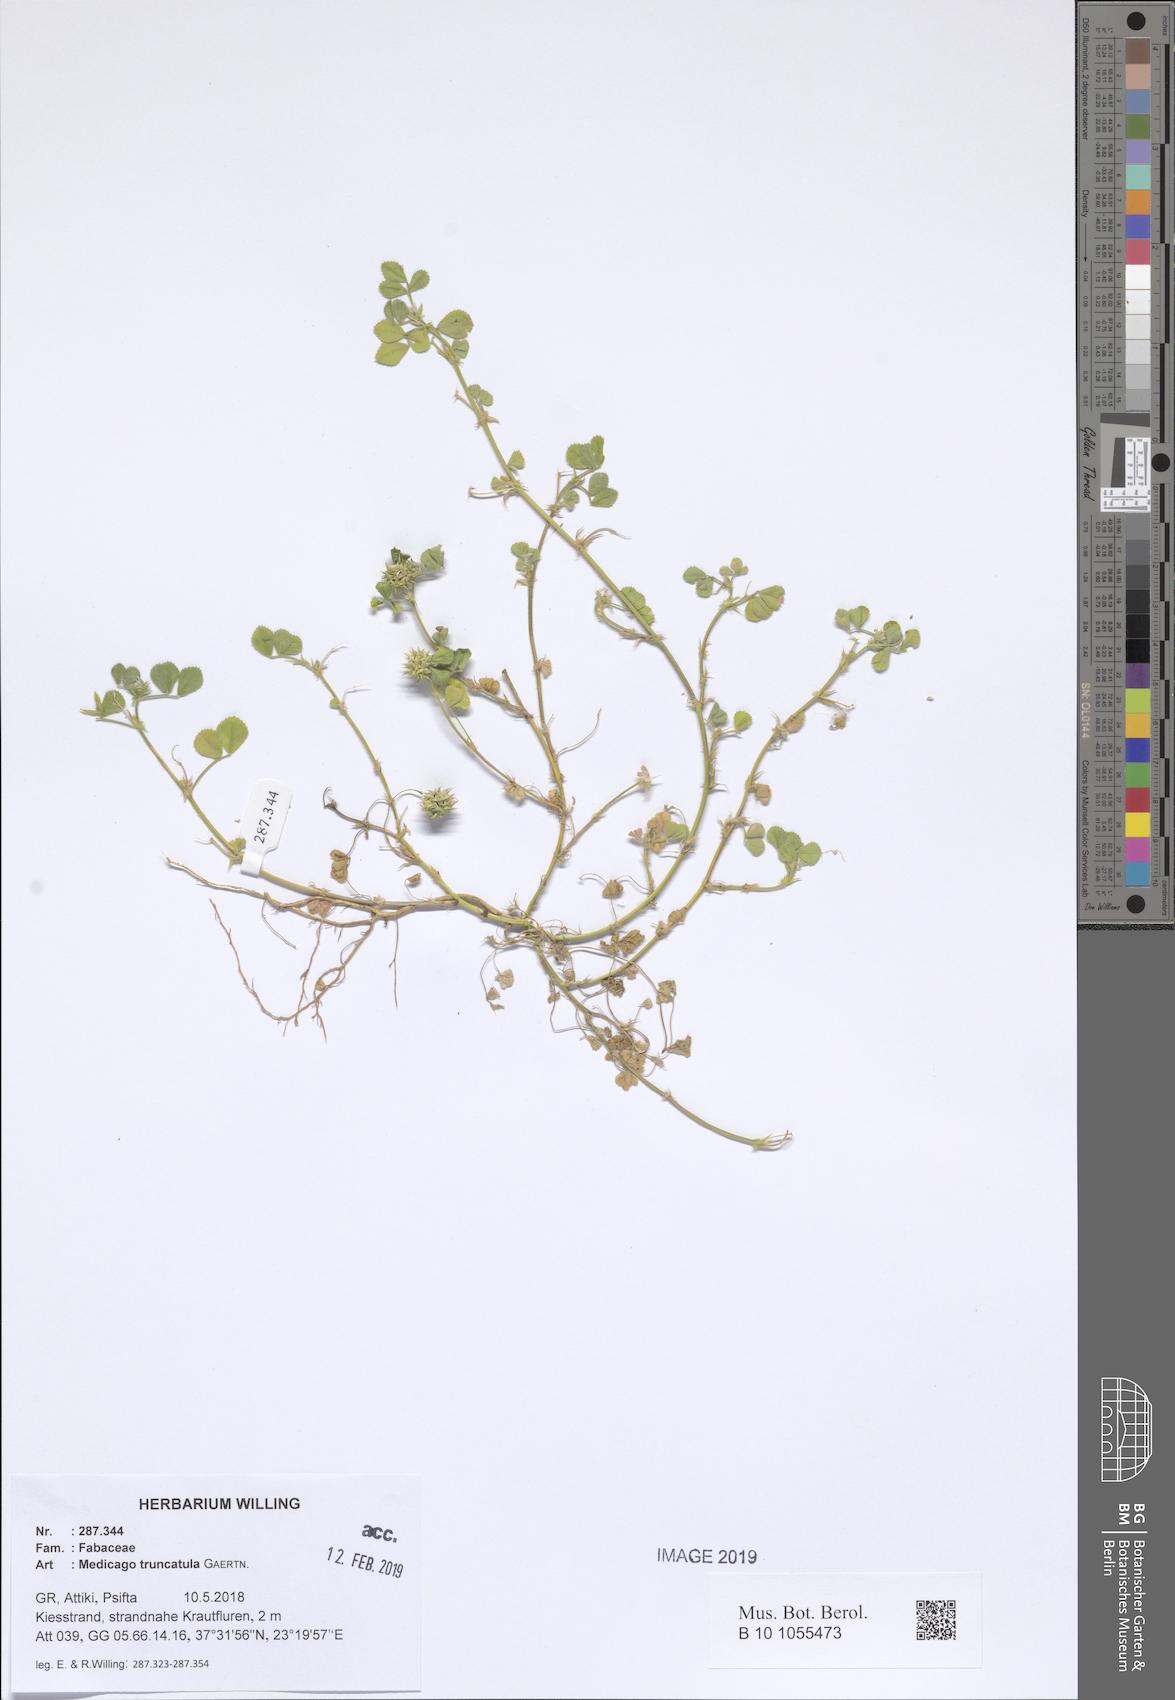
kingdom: Plantae
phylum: Tracheophyta
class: Magnoliopsida
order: Fabales
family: Fabaceae
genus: Medicago
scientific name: Medicago truncatula
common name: Strong-spined medick
